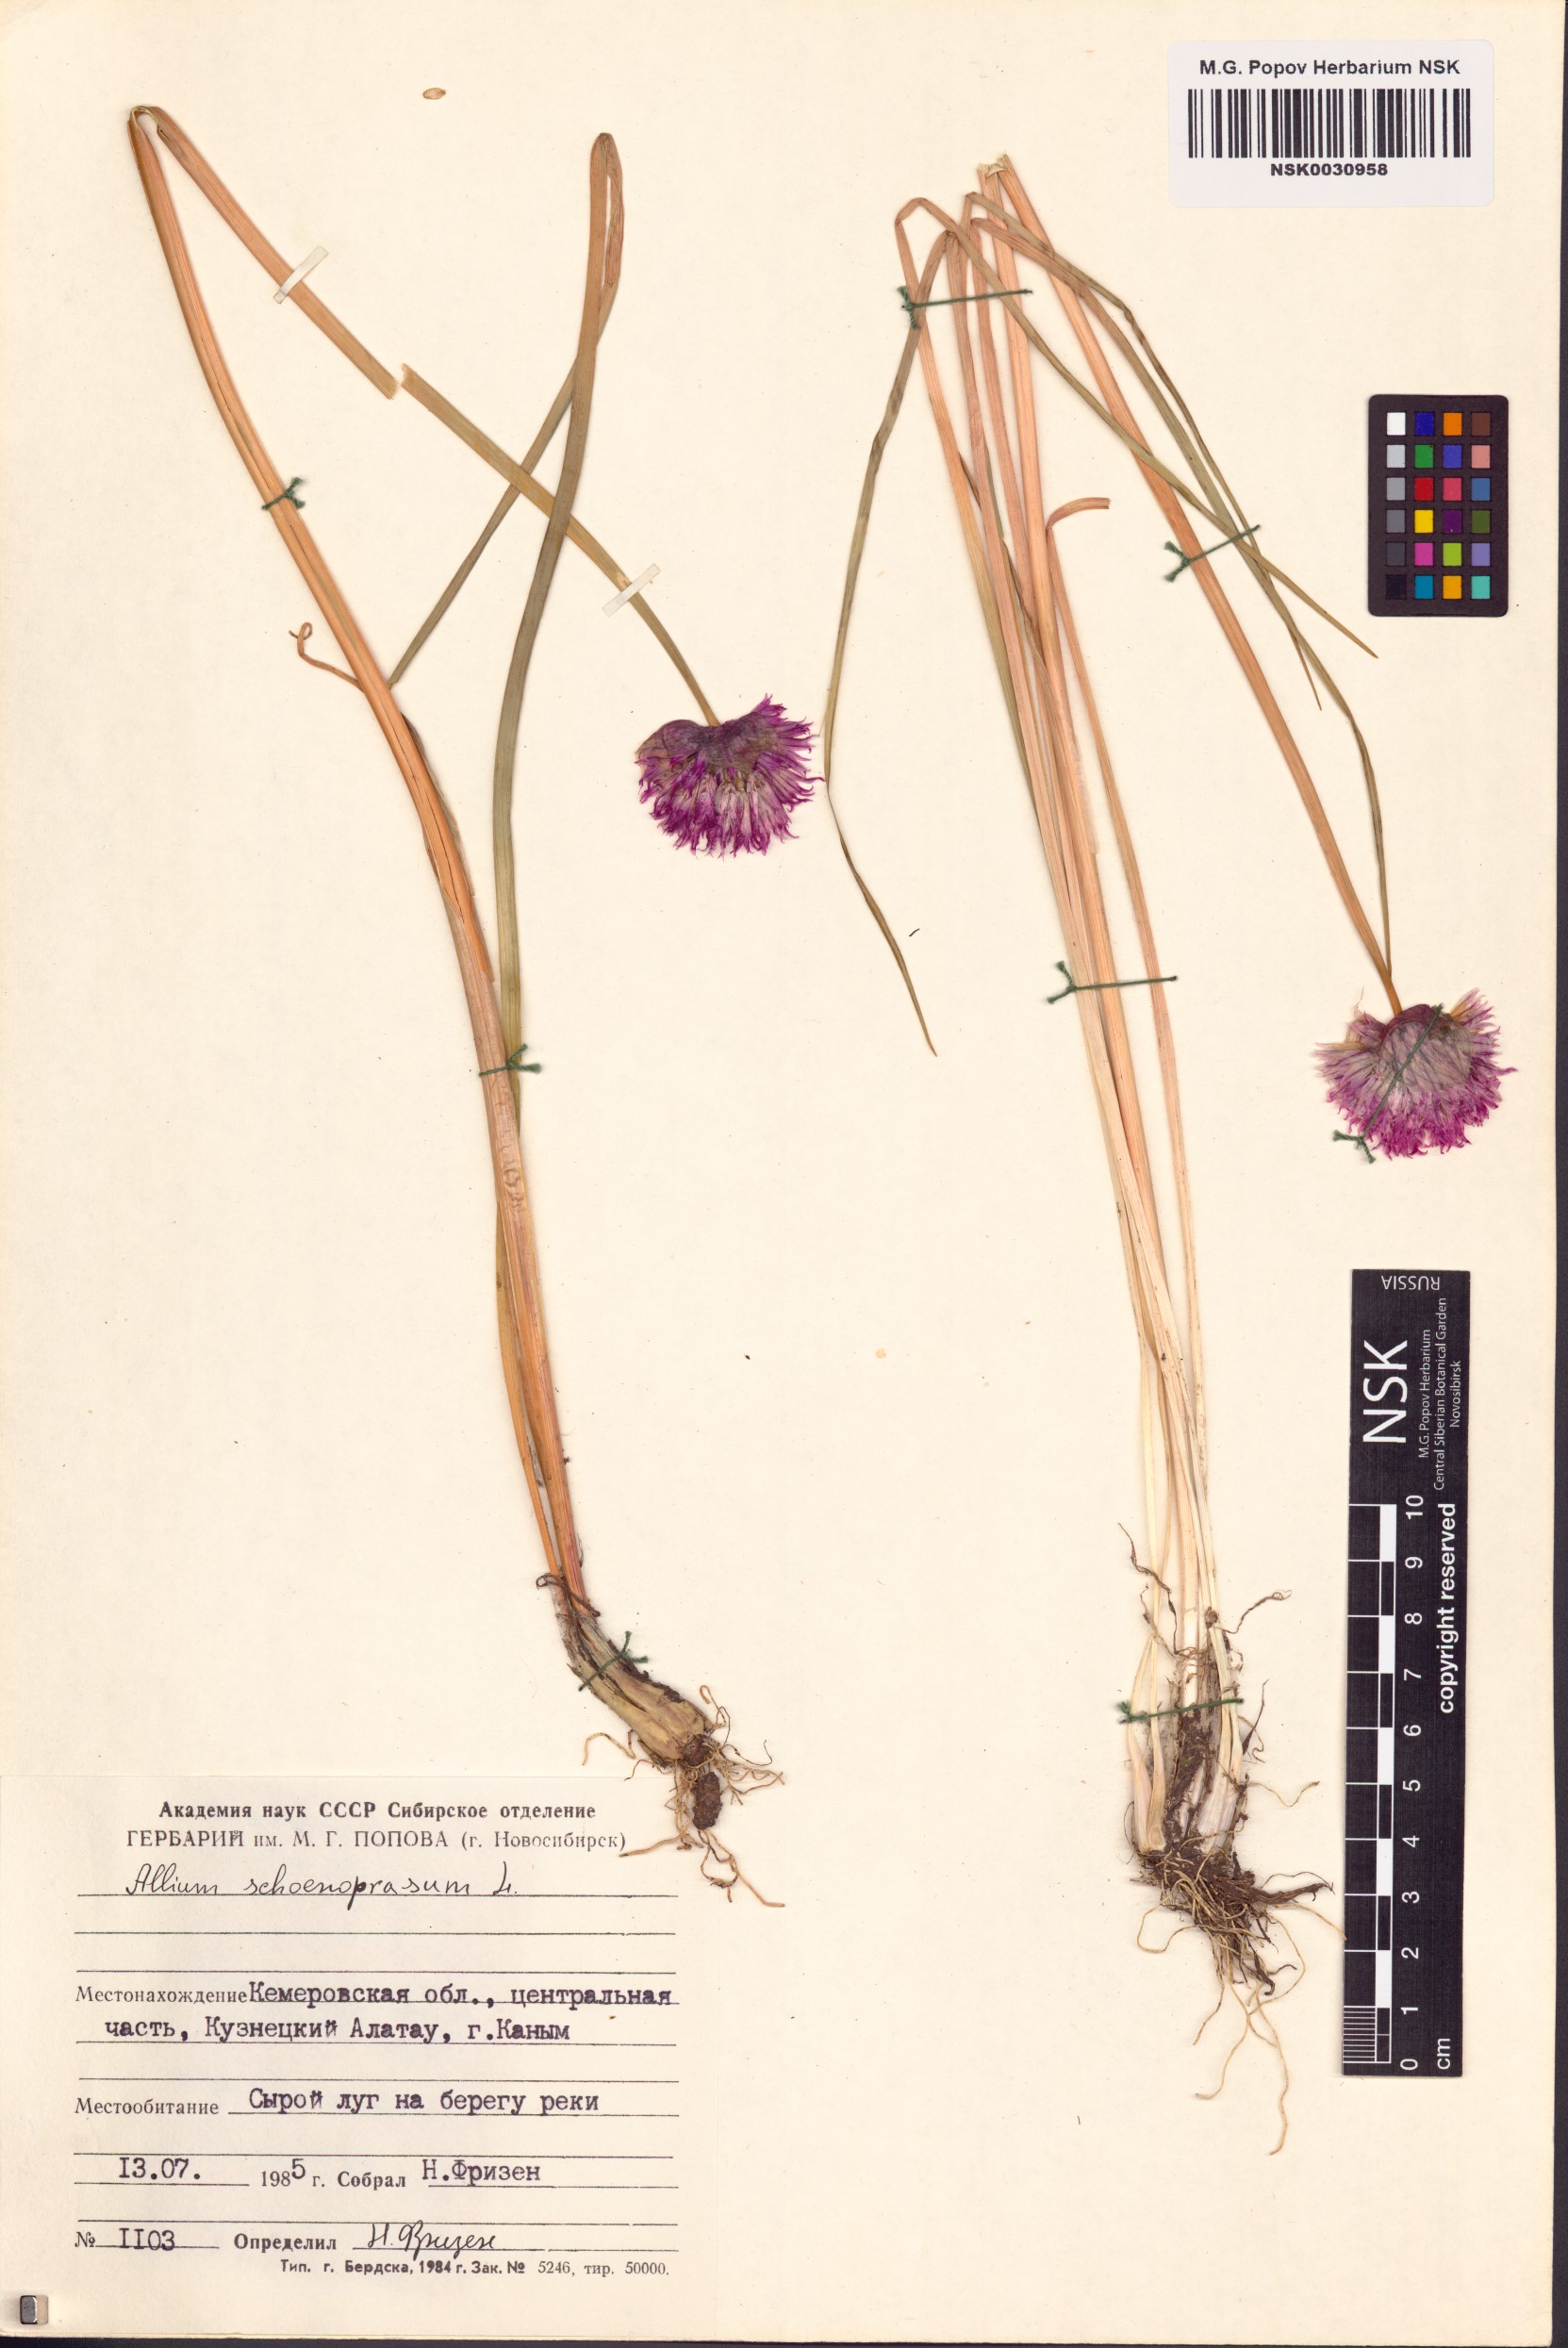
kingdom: Plantae
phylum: Tracheophyta
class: Liliopsida
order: Asparagales
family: Amaryllidaceae
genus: Allium
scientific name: Allium schoenoprasum
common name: Chives
